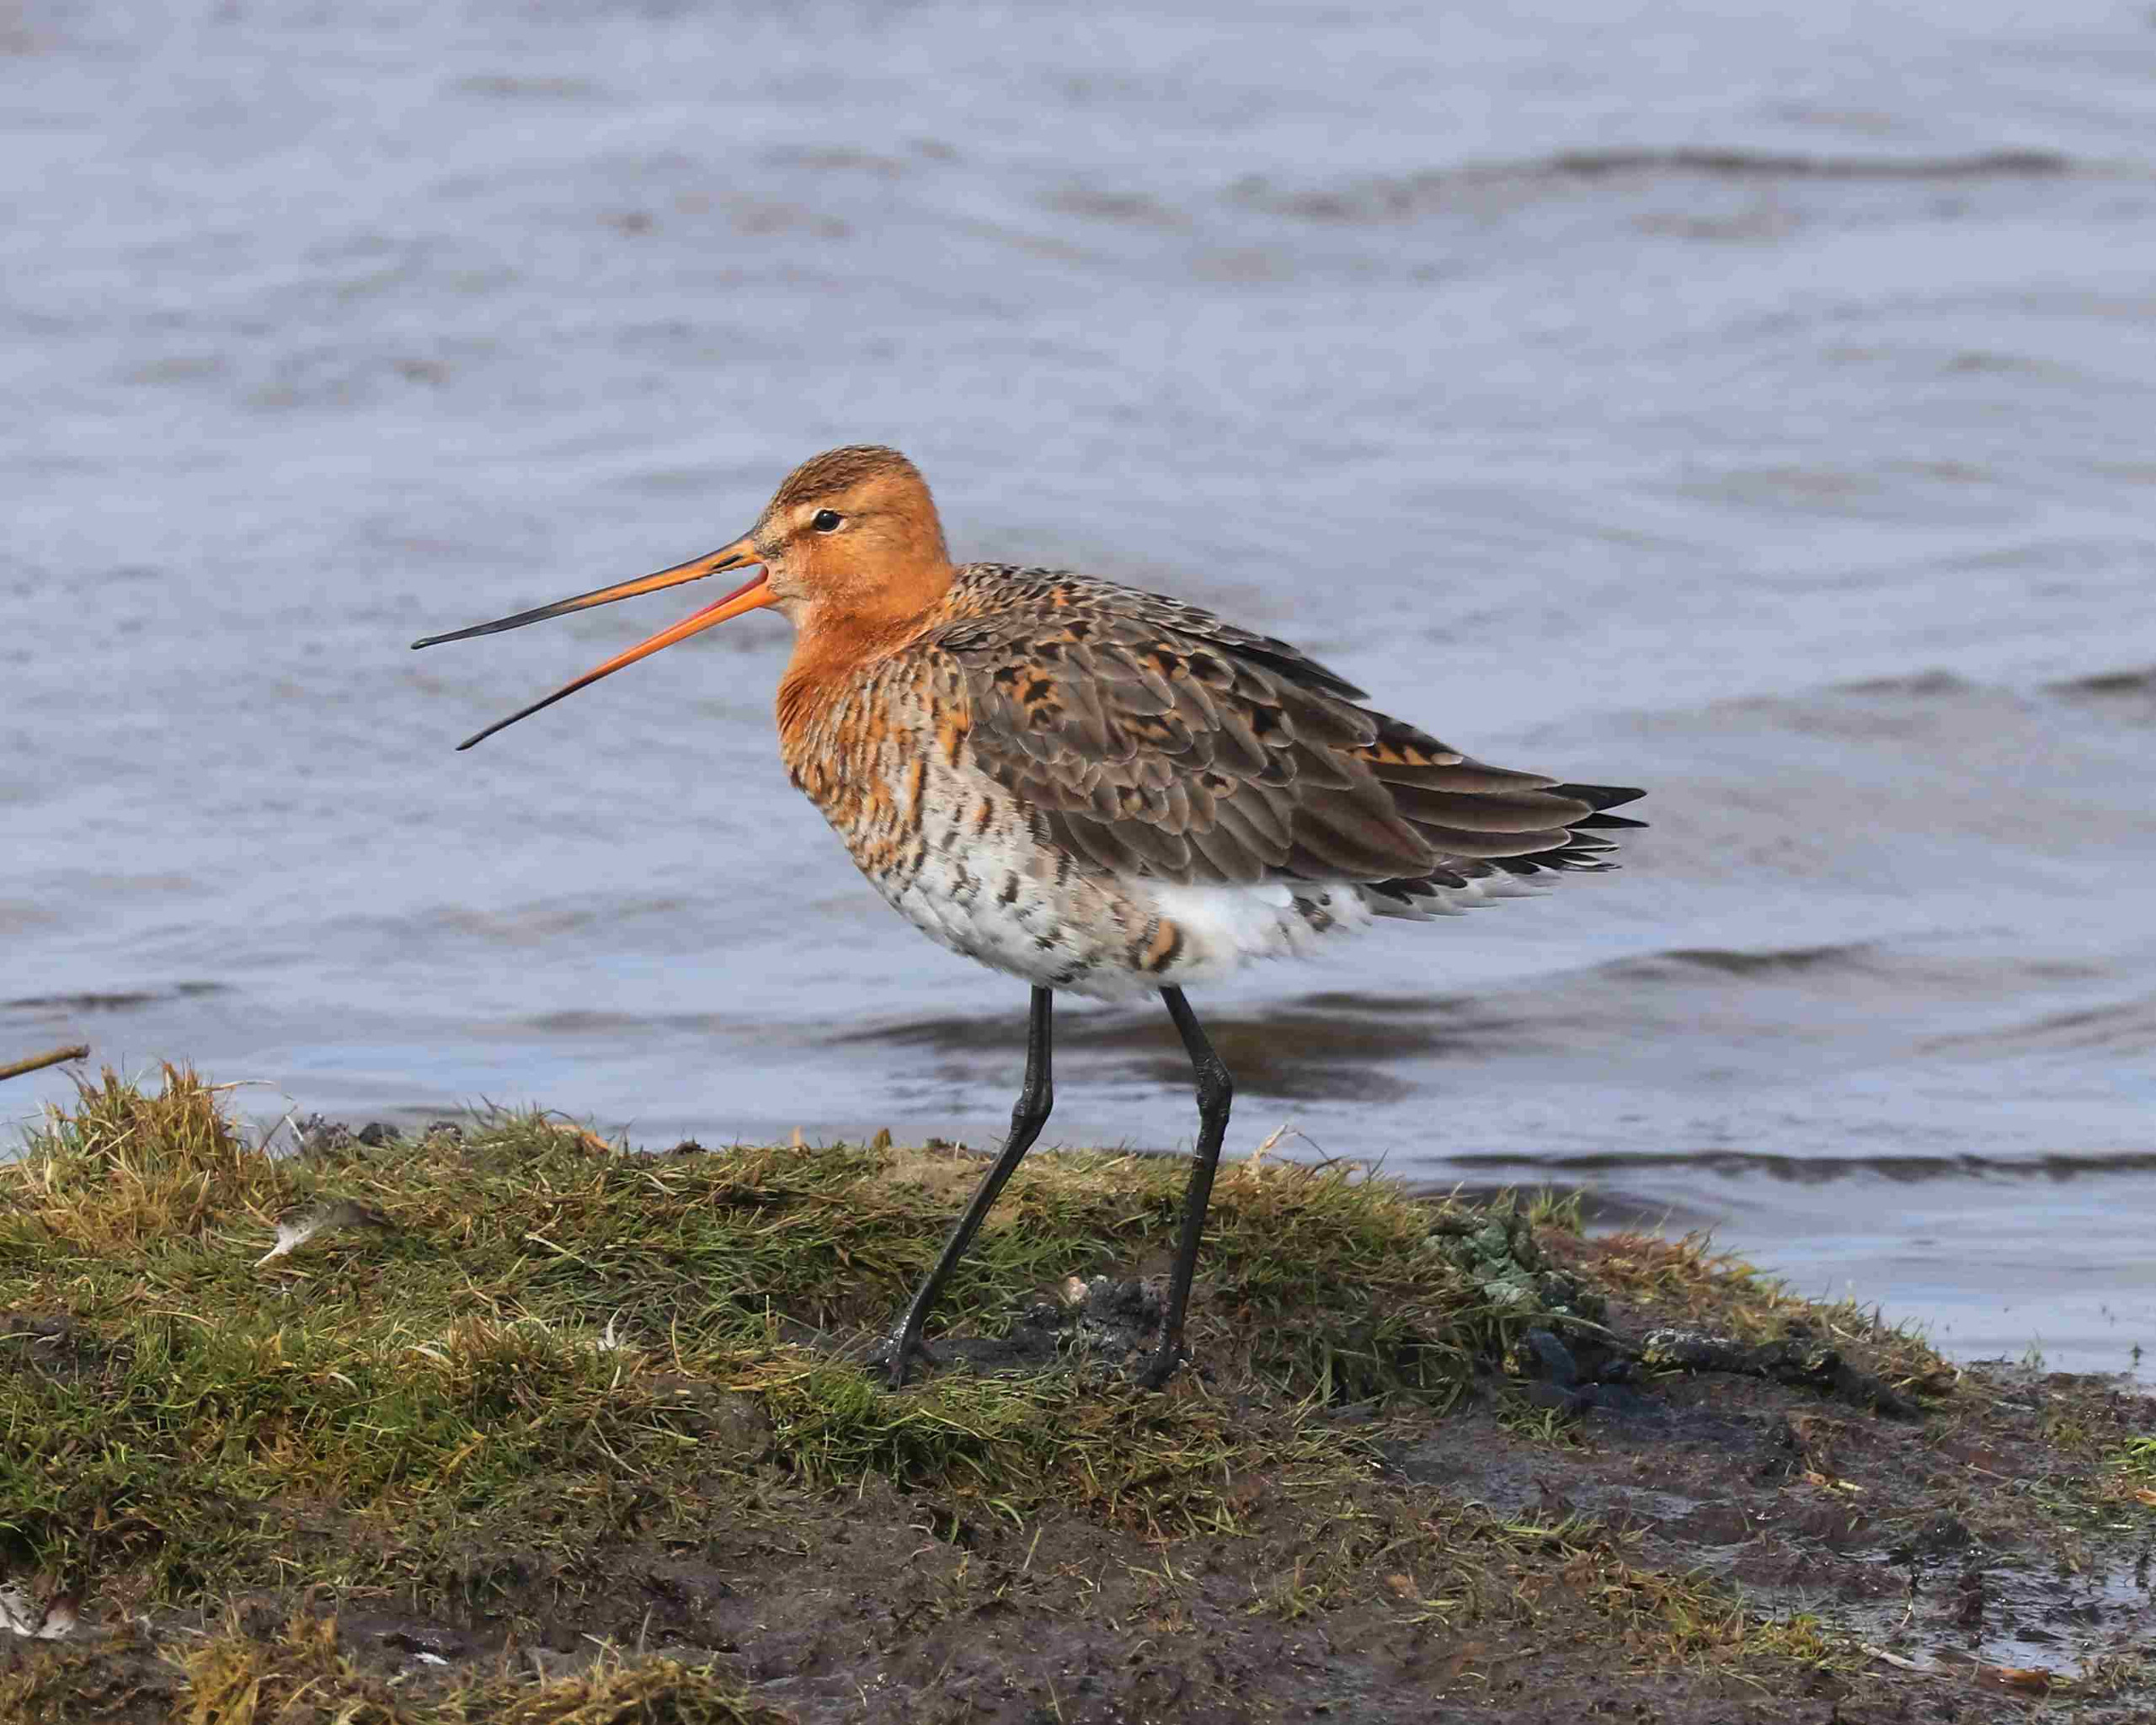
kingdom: Animalia
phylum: Chordata
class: Aves
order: Charadriiformes
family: Scolopacidae
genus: Limosa
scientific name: Limosa limosa
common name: Stor kobbersneppe
